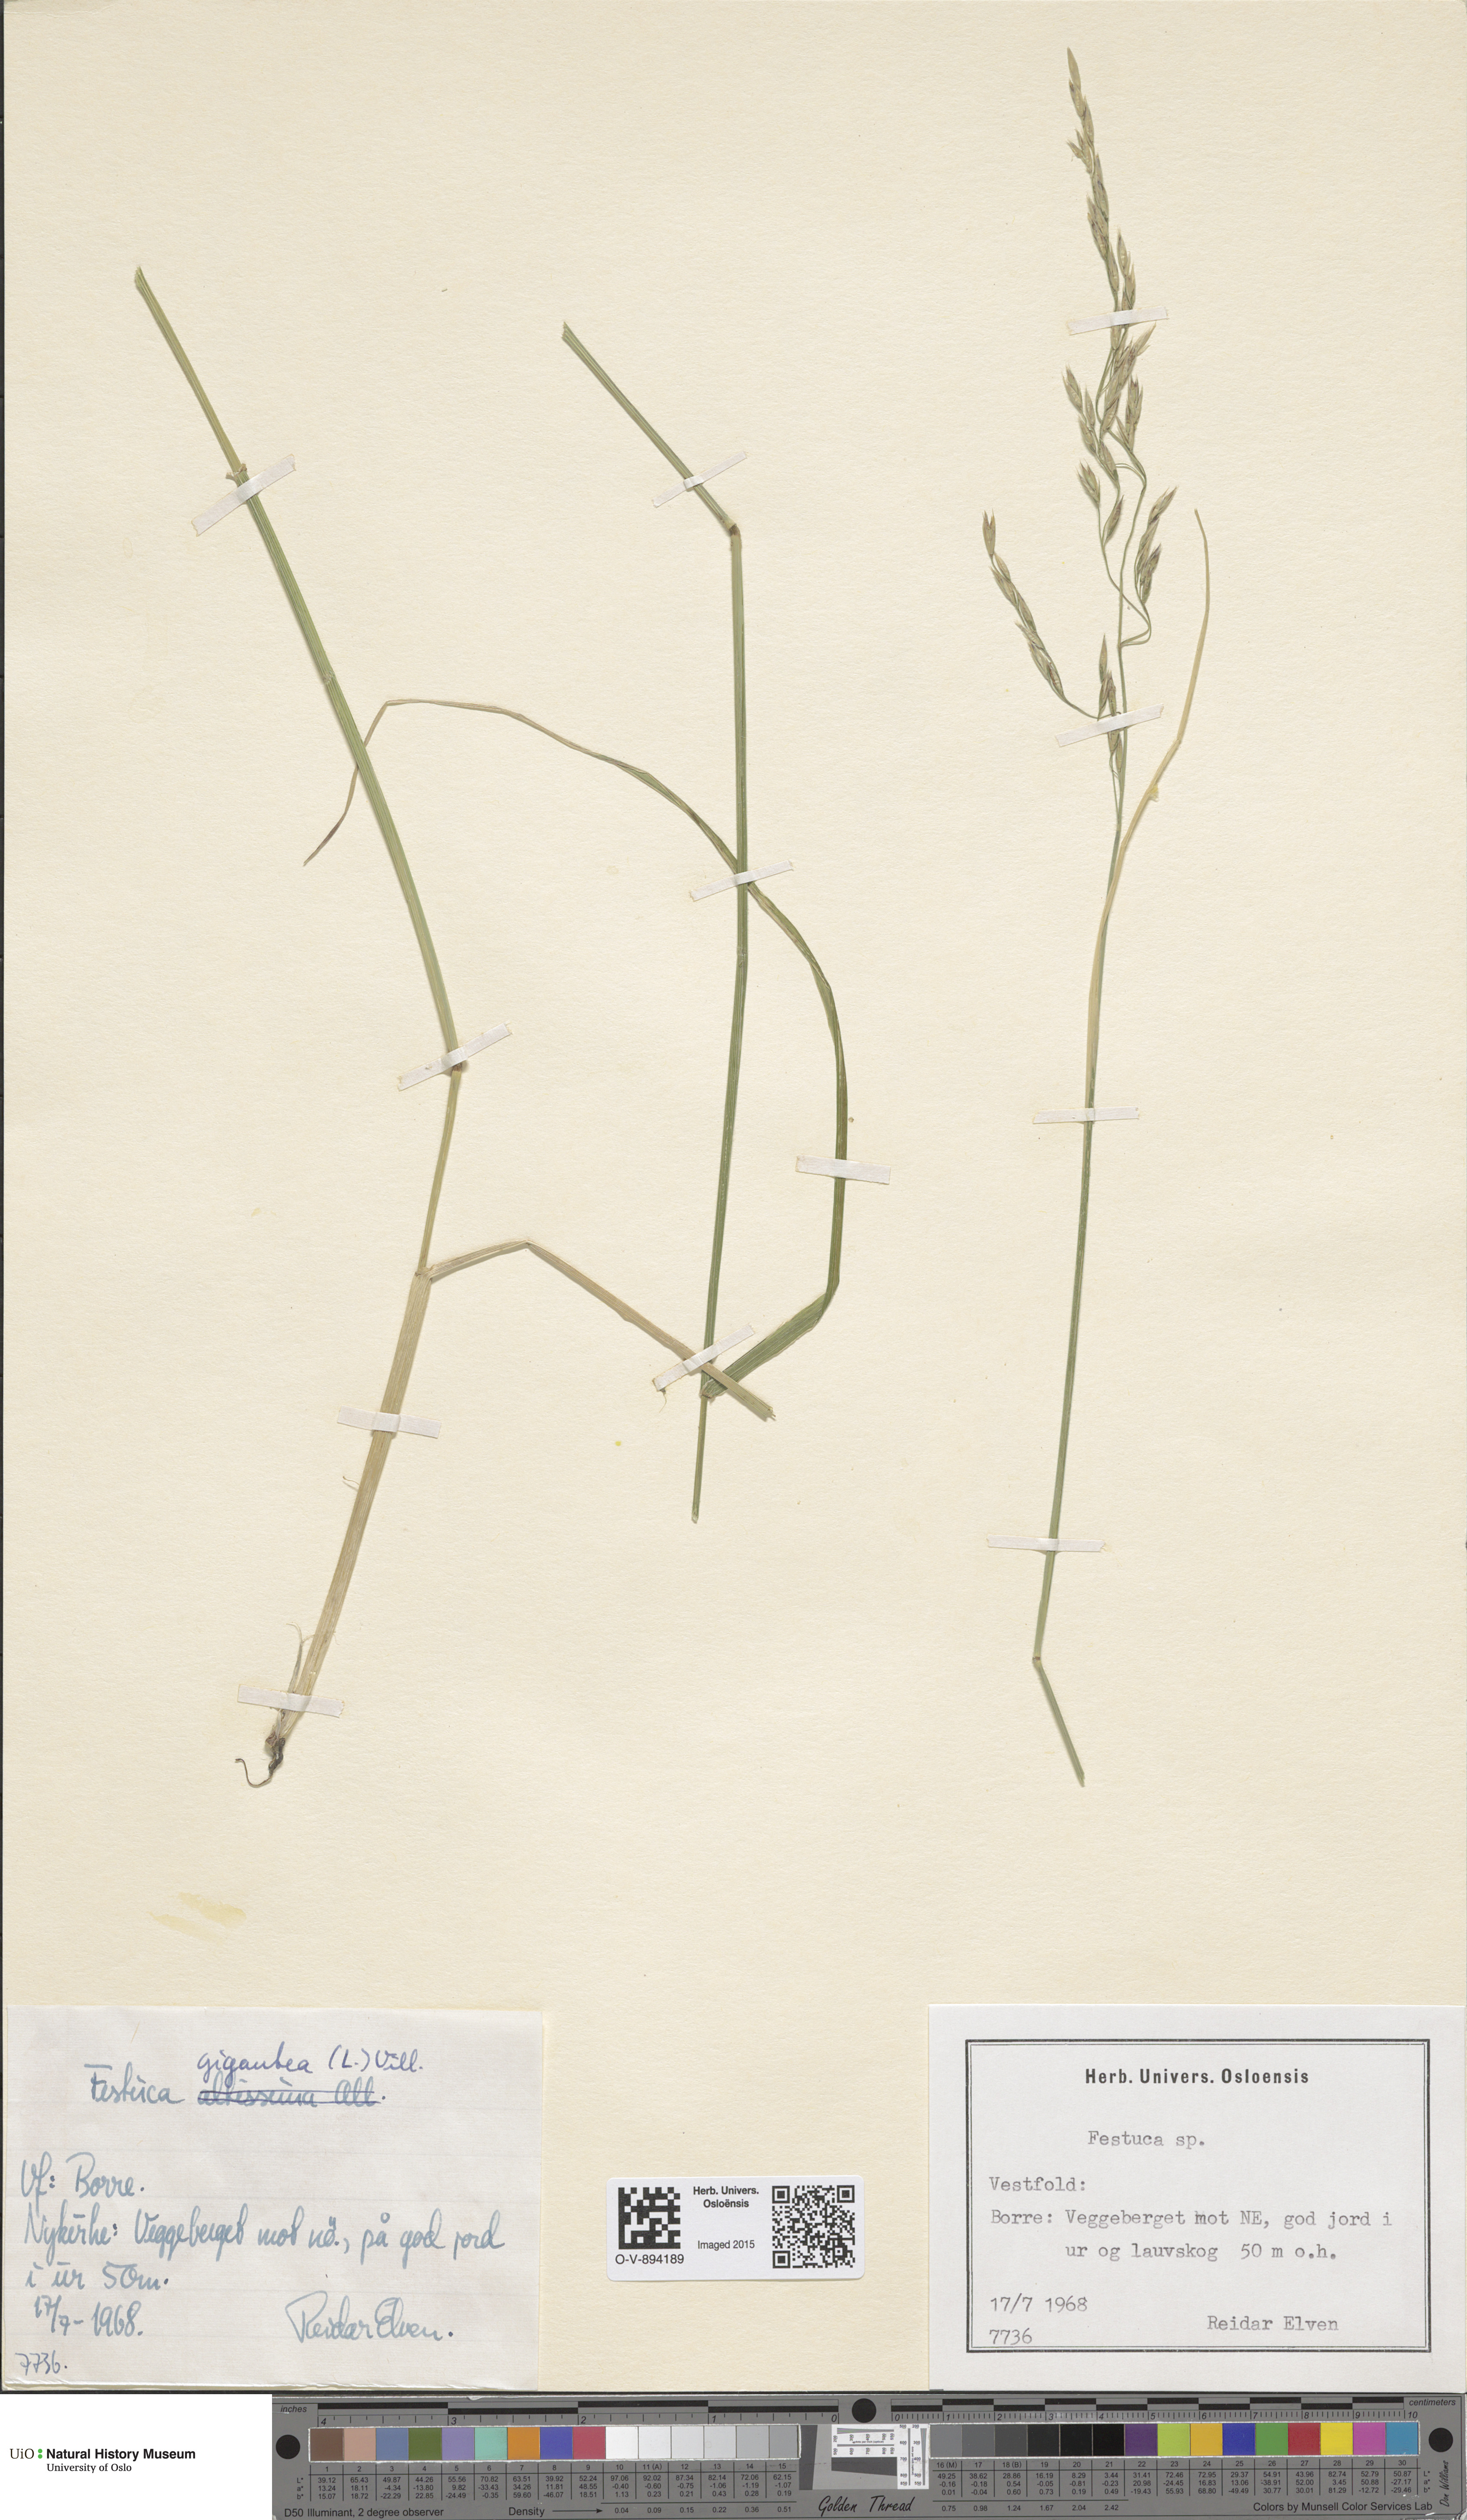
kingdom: Plantae
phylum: Tracheophyta
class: Liliopsida
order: Poales
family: Poaceae
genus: Lolium
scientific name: Lolium giganteum
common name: Giant fescue
